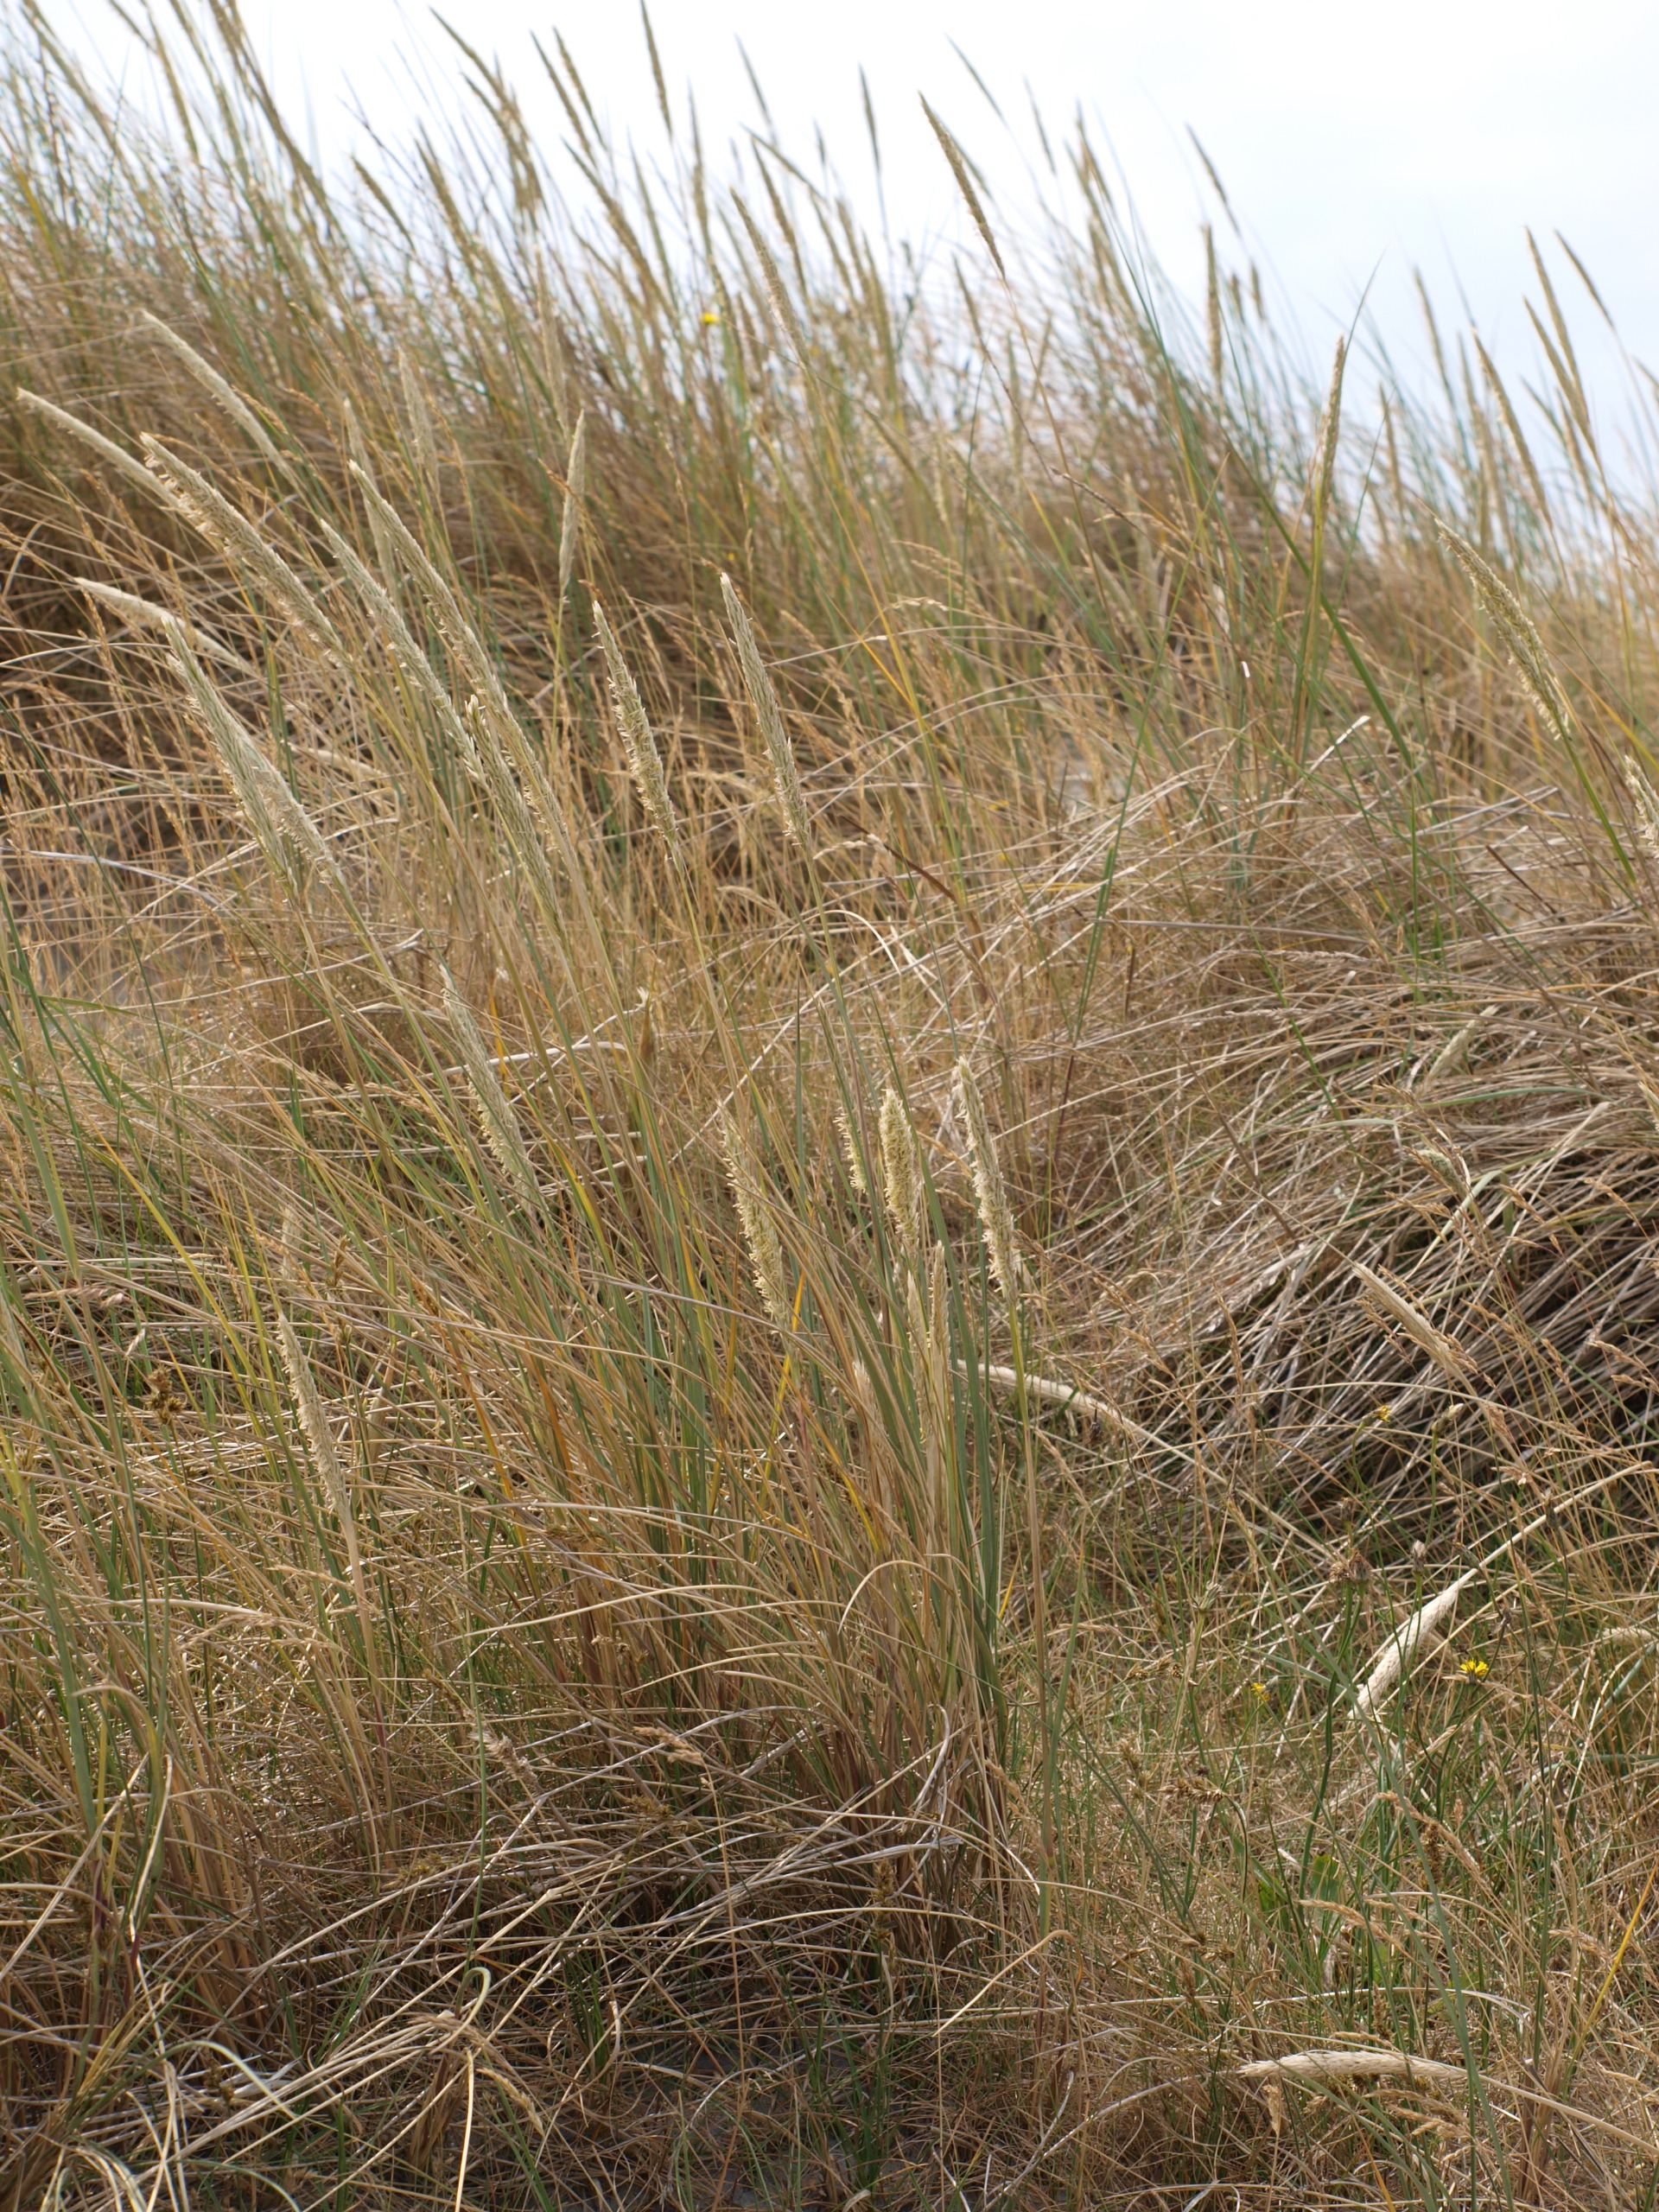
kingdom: Plantae
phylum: Tracheophyta
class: Liliopsida
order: Poales
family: Poaceae
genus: Calamagrostis
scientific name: Calamagrostis arenaria
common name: Sand-hjælme
